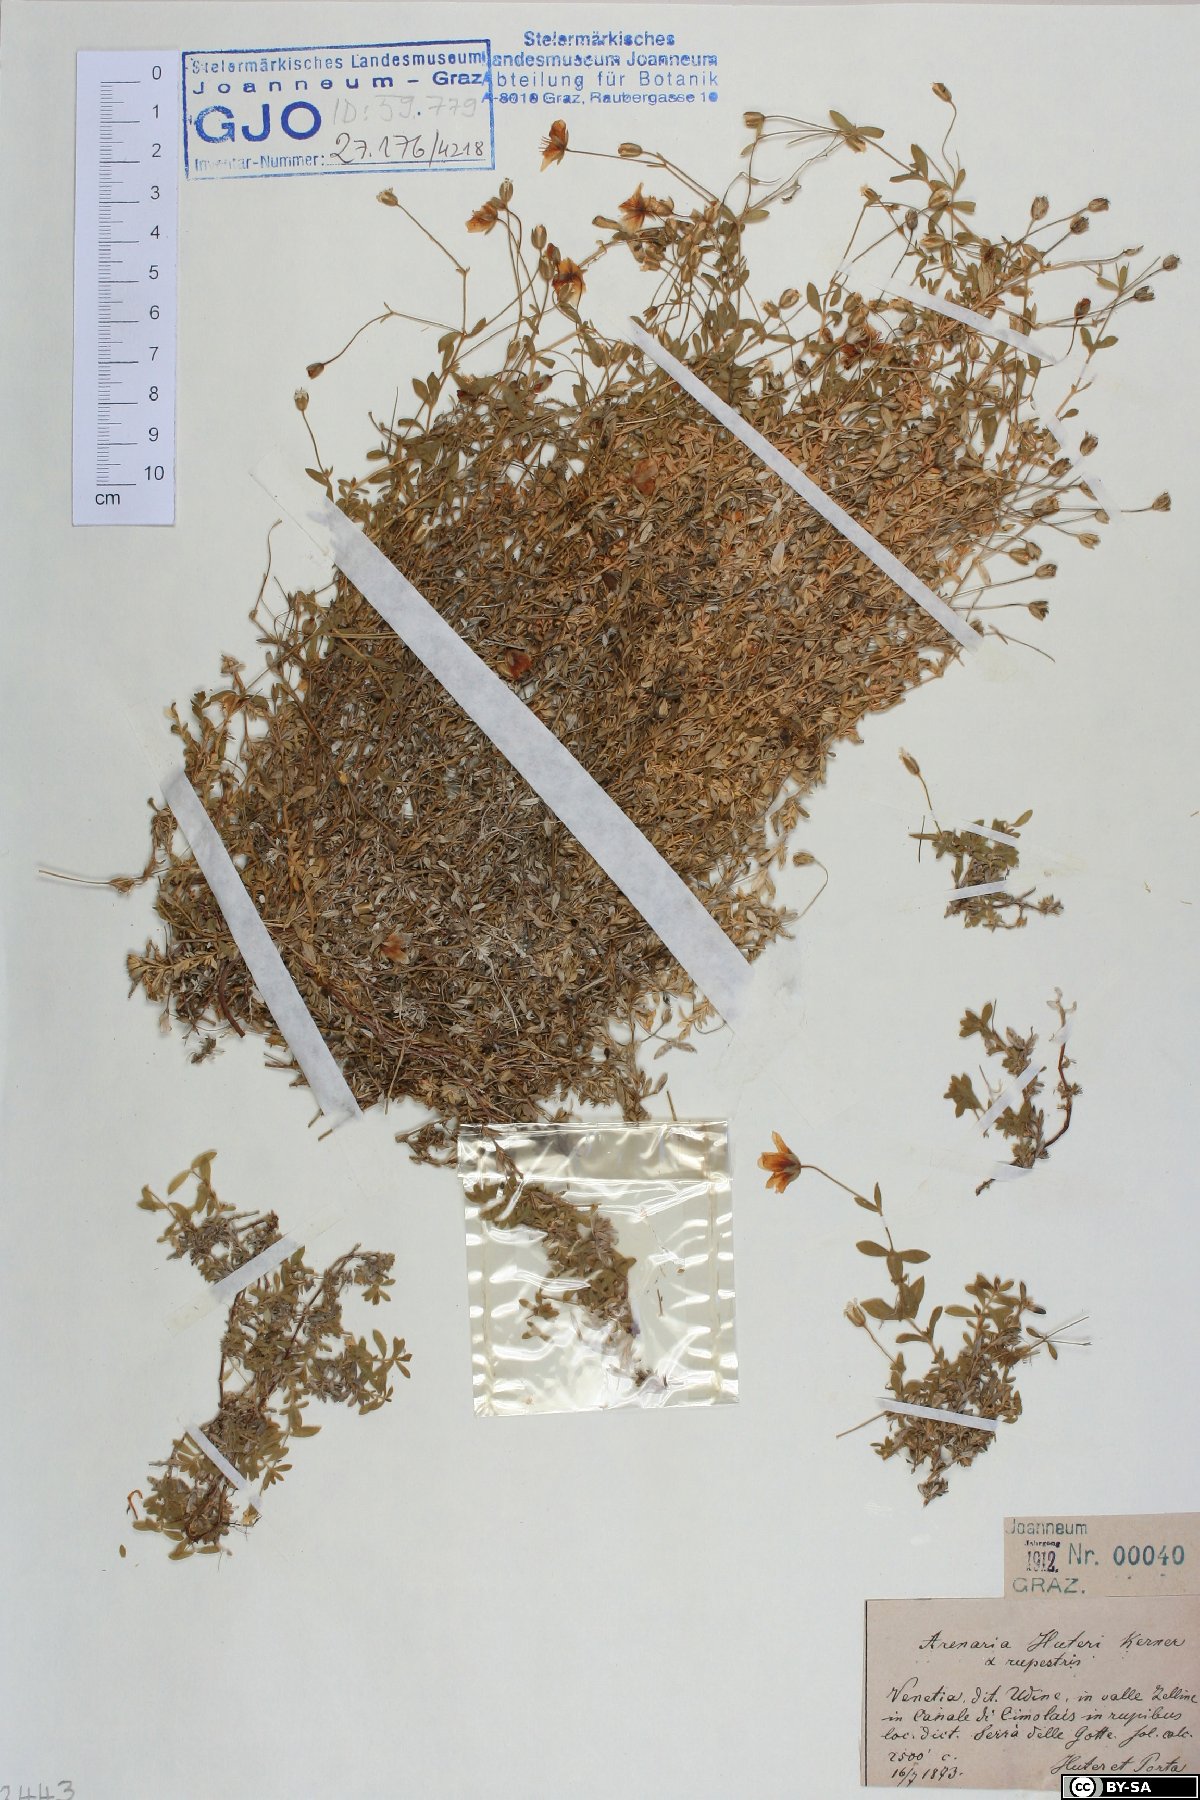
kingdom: Plantae
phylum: Tracheophyta
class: Magnoliopsida
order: Caryophyllales
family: Caryophyllaceae
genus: Arenaria
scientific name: Arenaria huteri
